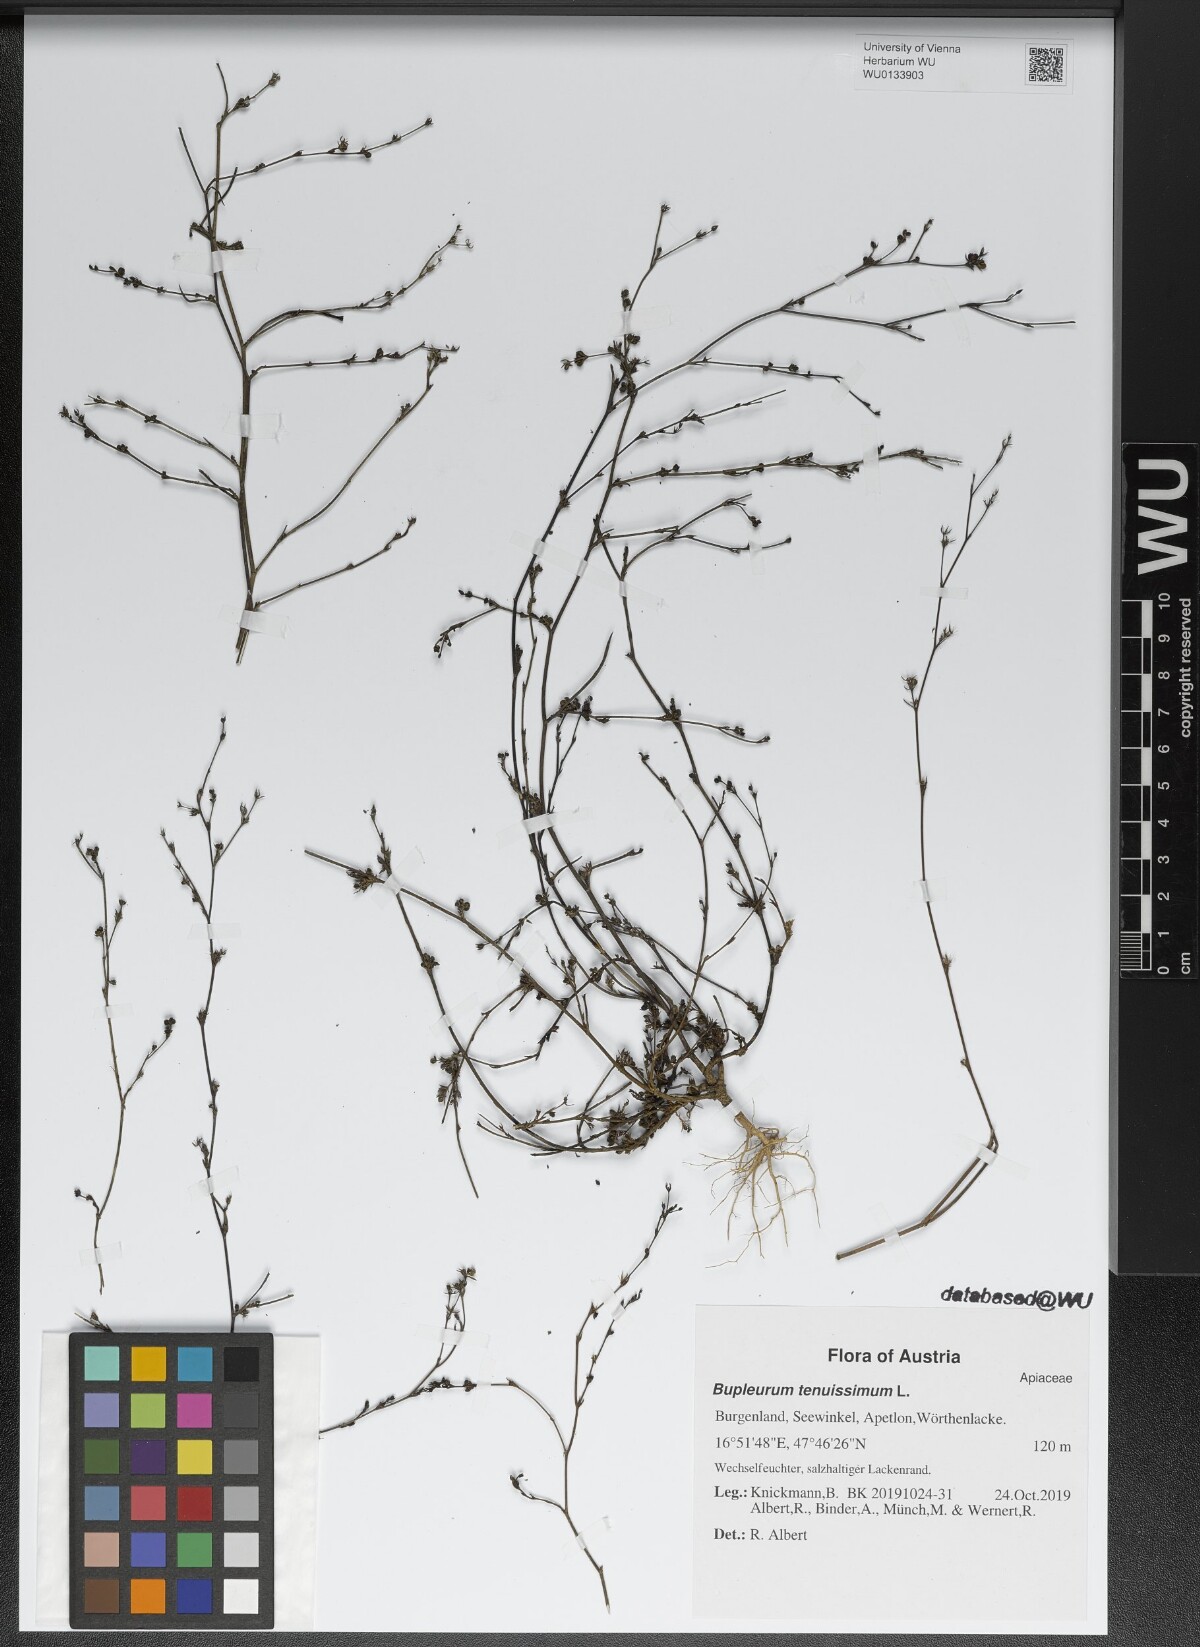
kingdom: Plantae
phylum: Tracheophyta
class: Magnoliopsida
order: Apiales
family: Apiaceae
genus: Bupleurum
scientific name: Bupleurum tenuissimum
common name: Slender hare's-ear
